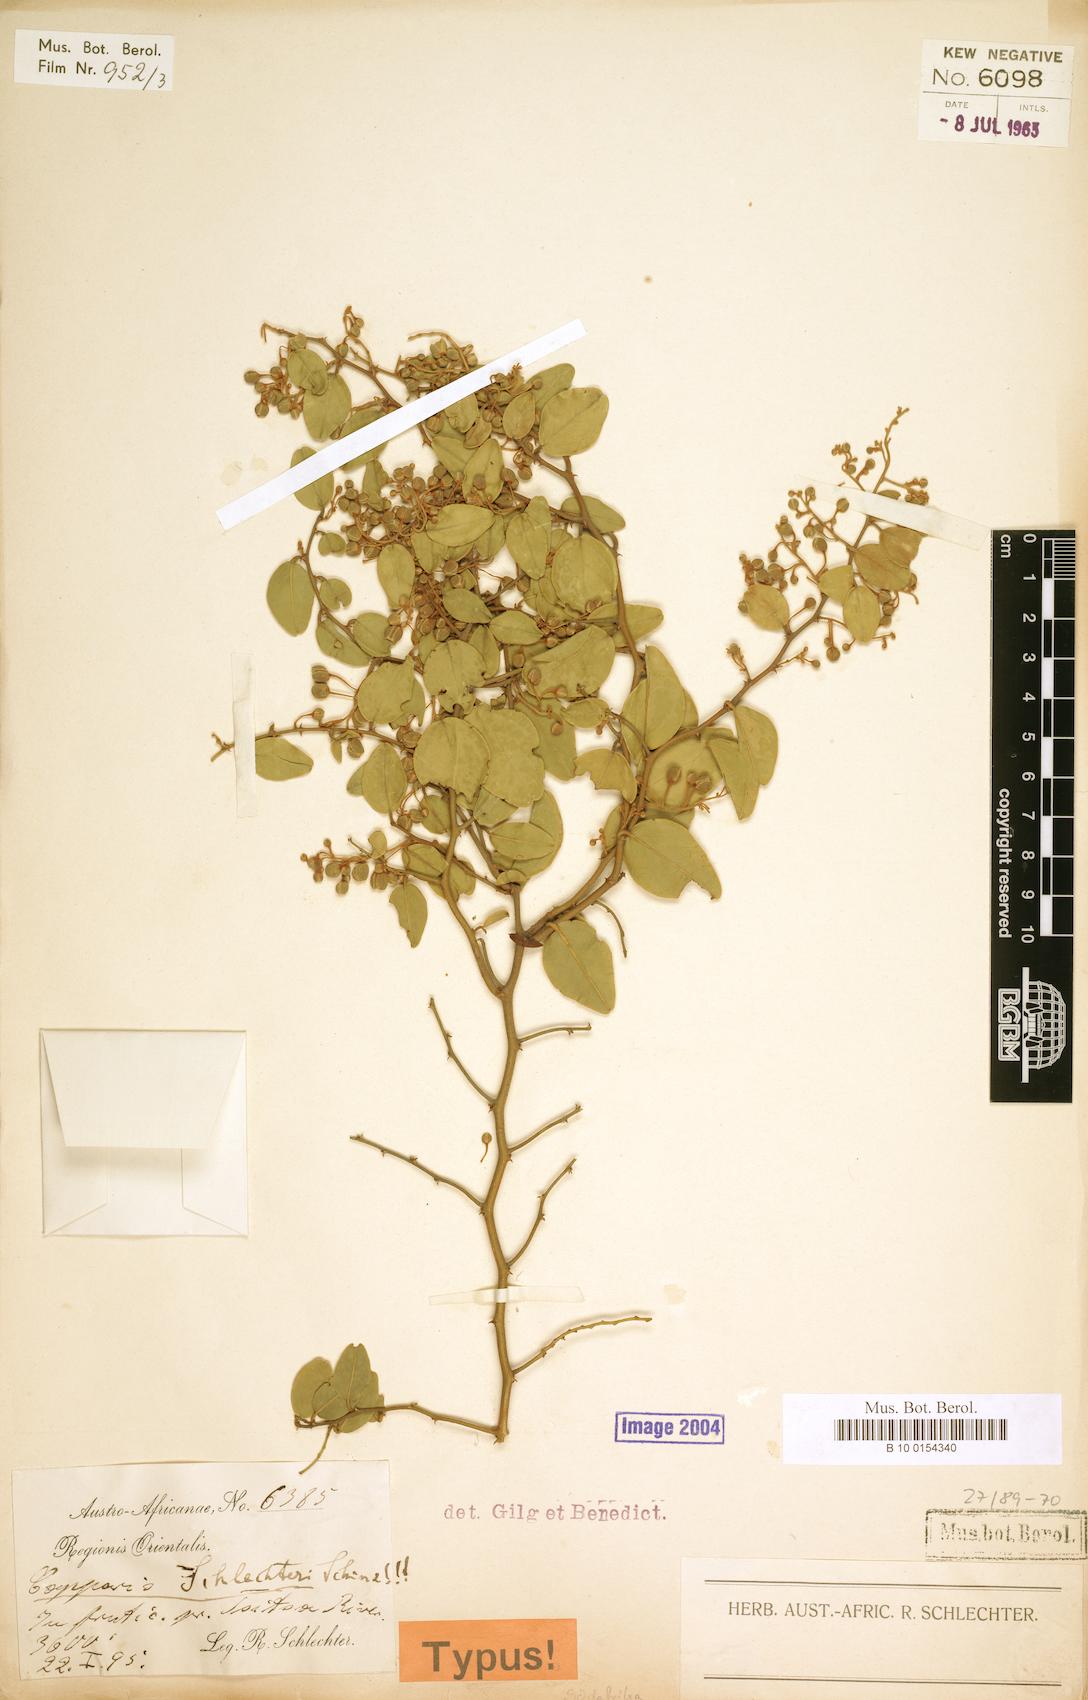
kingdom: Plantae
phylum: Tracheophyta
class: Magnoliopsida
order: Brassicales
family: Capparaceae
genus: Capparis
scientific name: Capparis fascicularis
